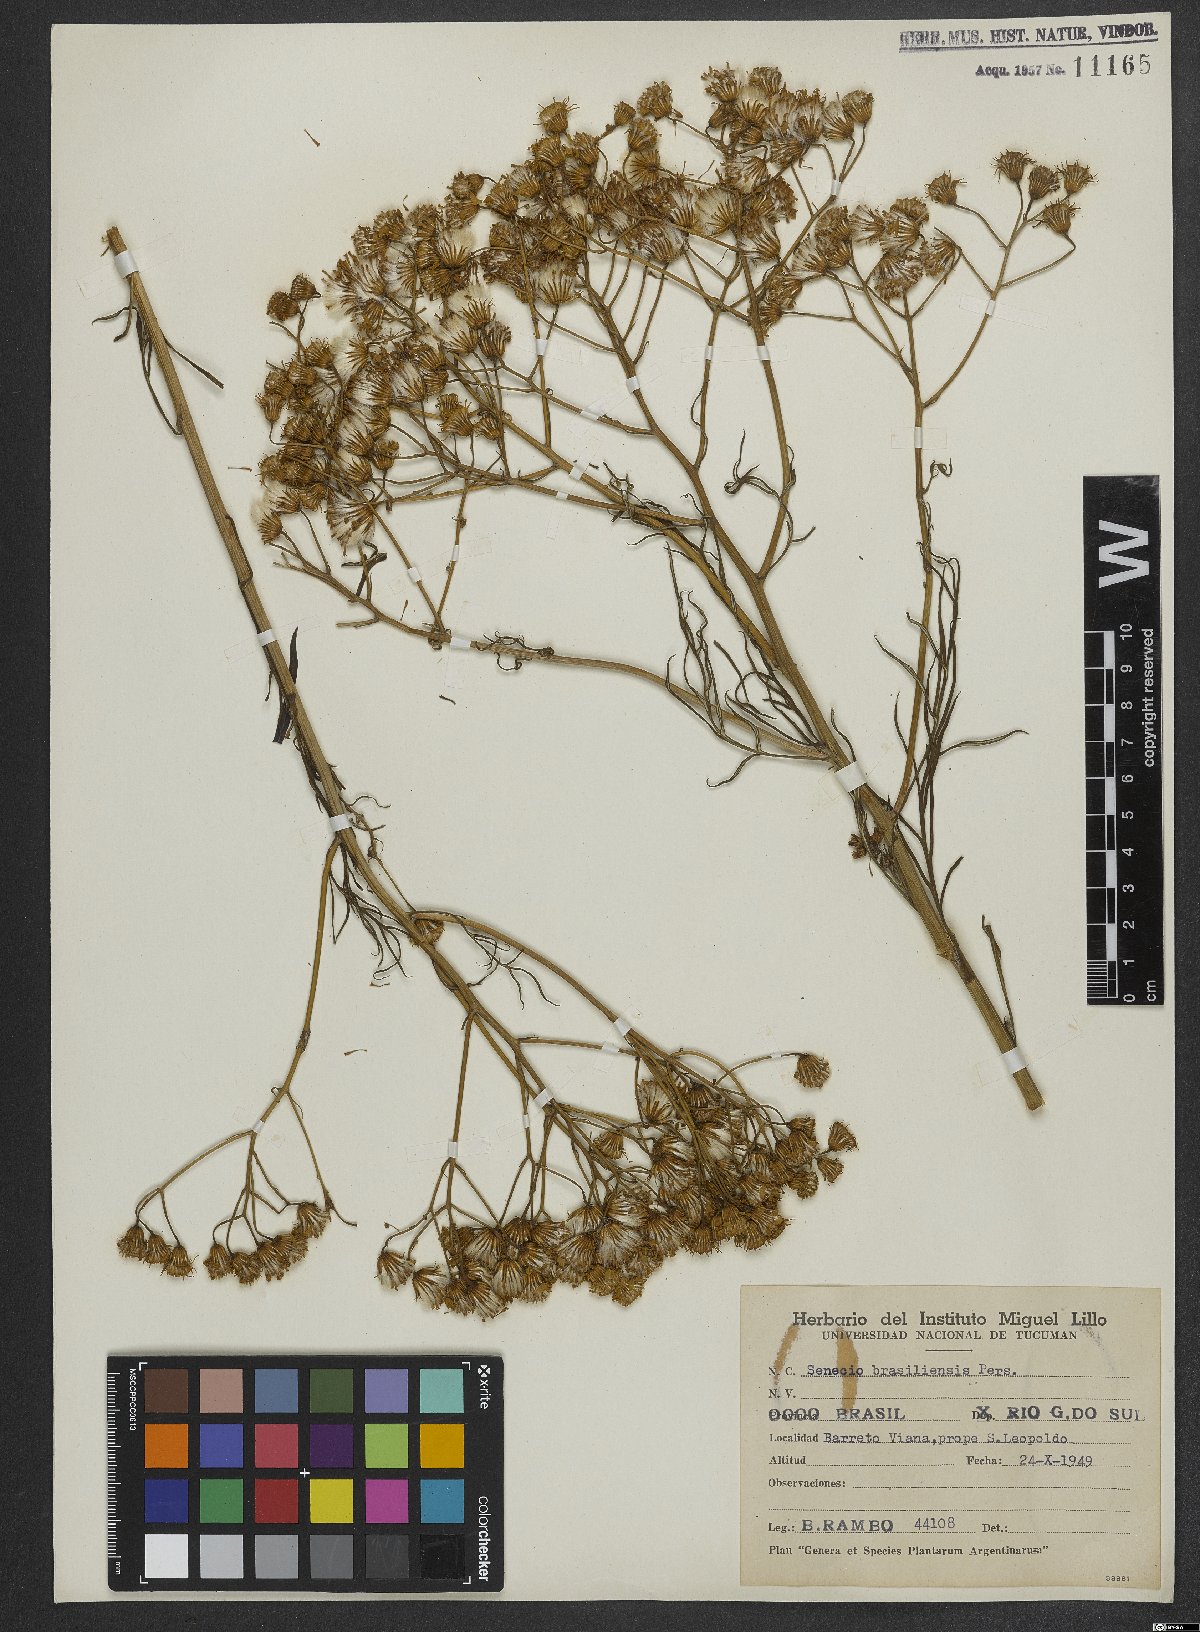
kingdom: Plantae
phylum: Tracheophyta
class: Magnoliopsida
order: Asterales
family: Asteraceae
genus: Senecio
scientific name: Senecio brasiliensis
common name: Hemp-leaf ragwort
